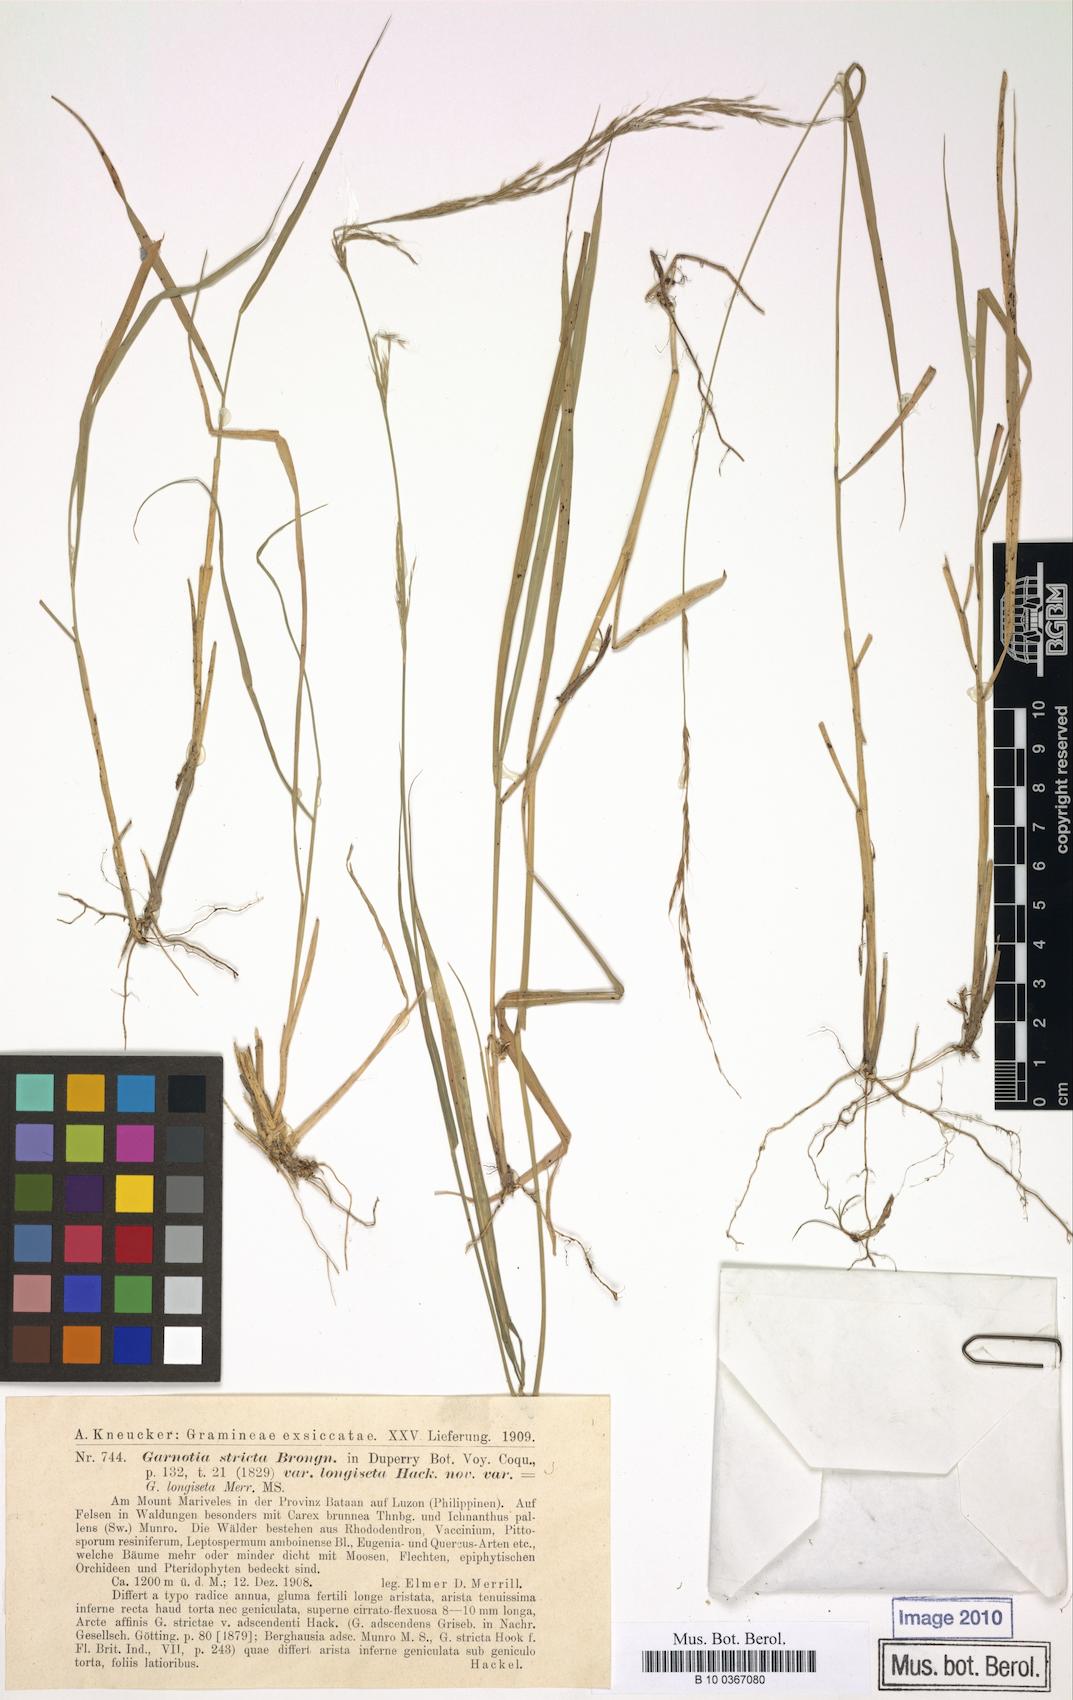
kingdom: Plantae
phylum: Tracheophyta
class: Liliopsida
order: Poales
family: Poaceae
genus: Garnotia
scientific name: Garnotia stricta
